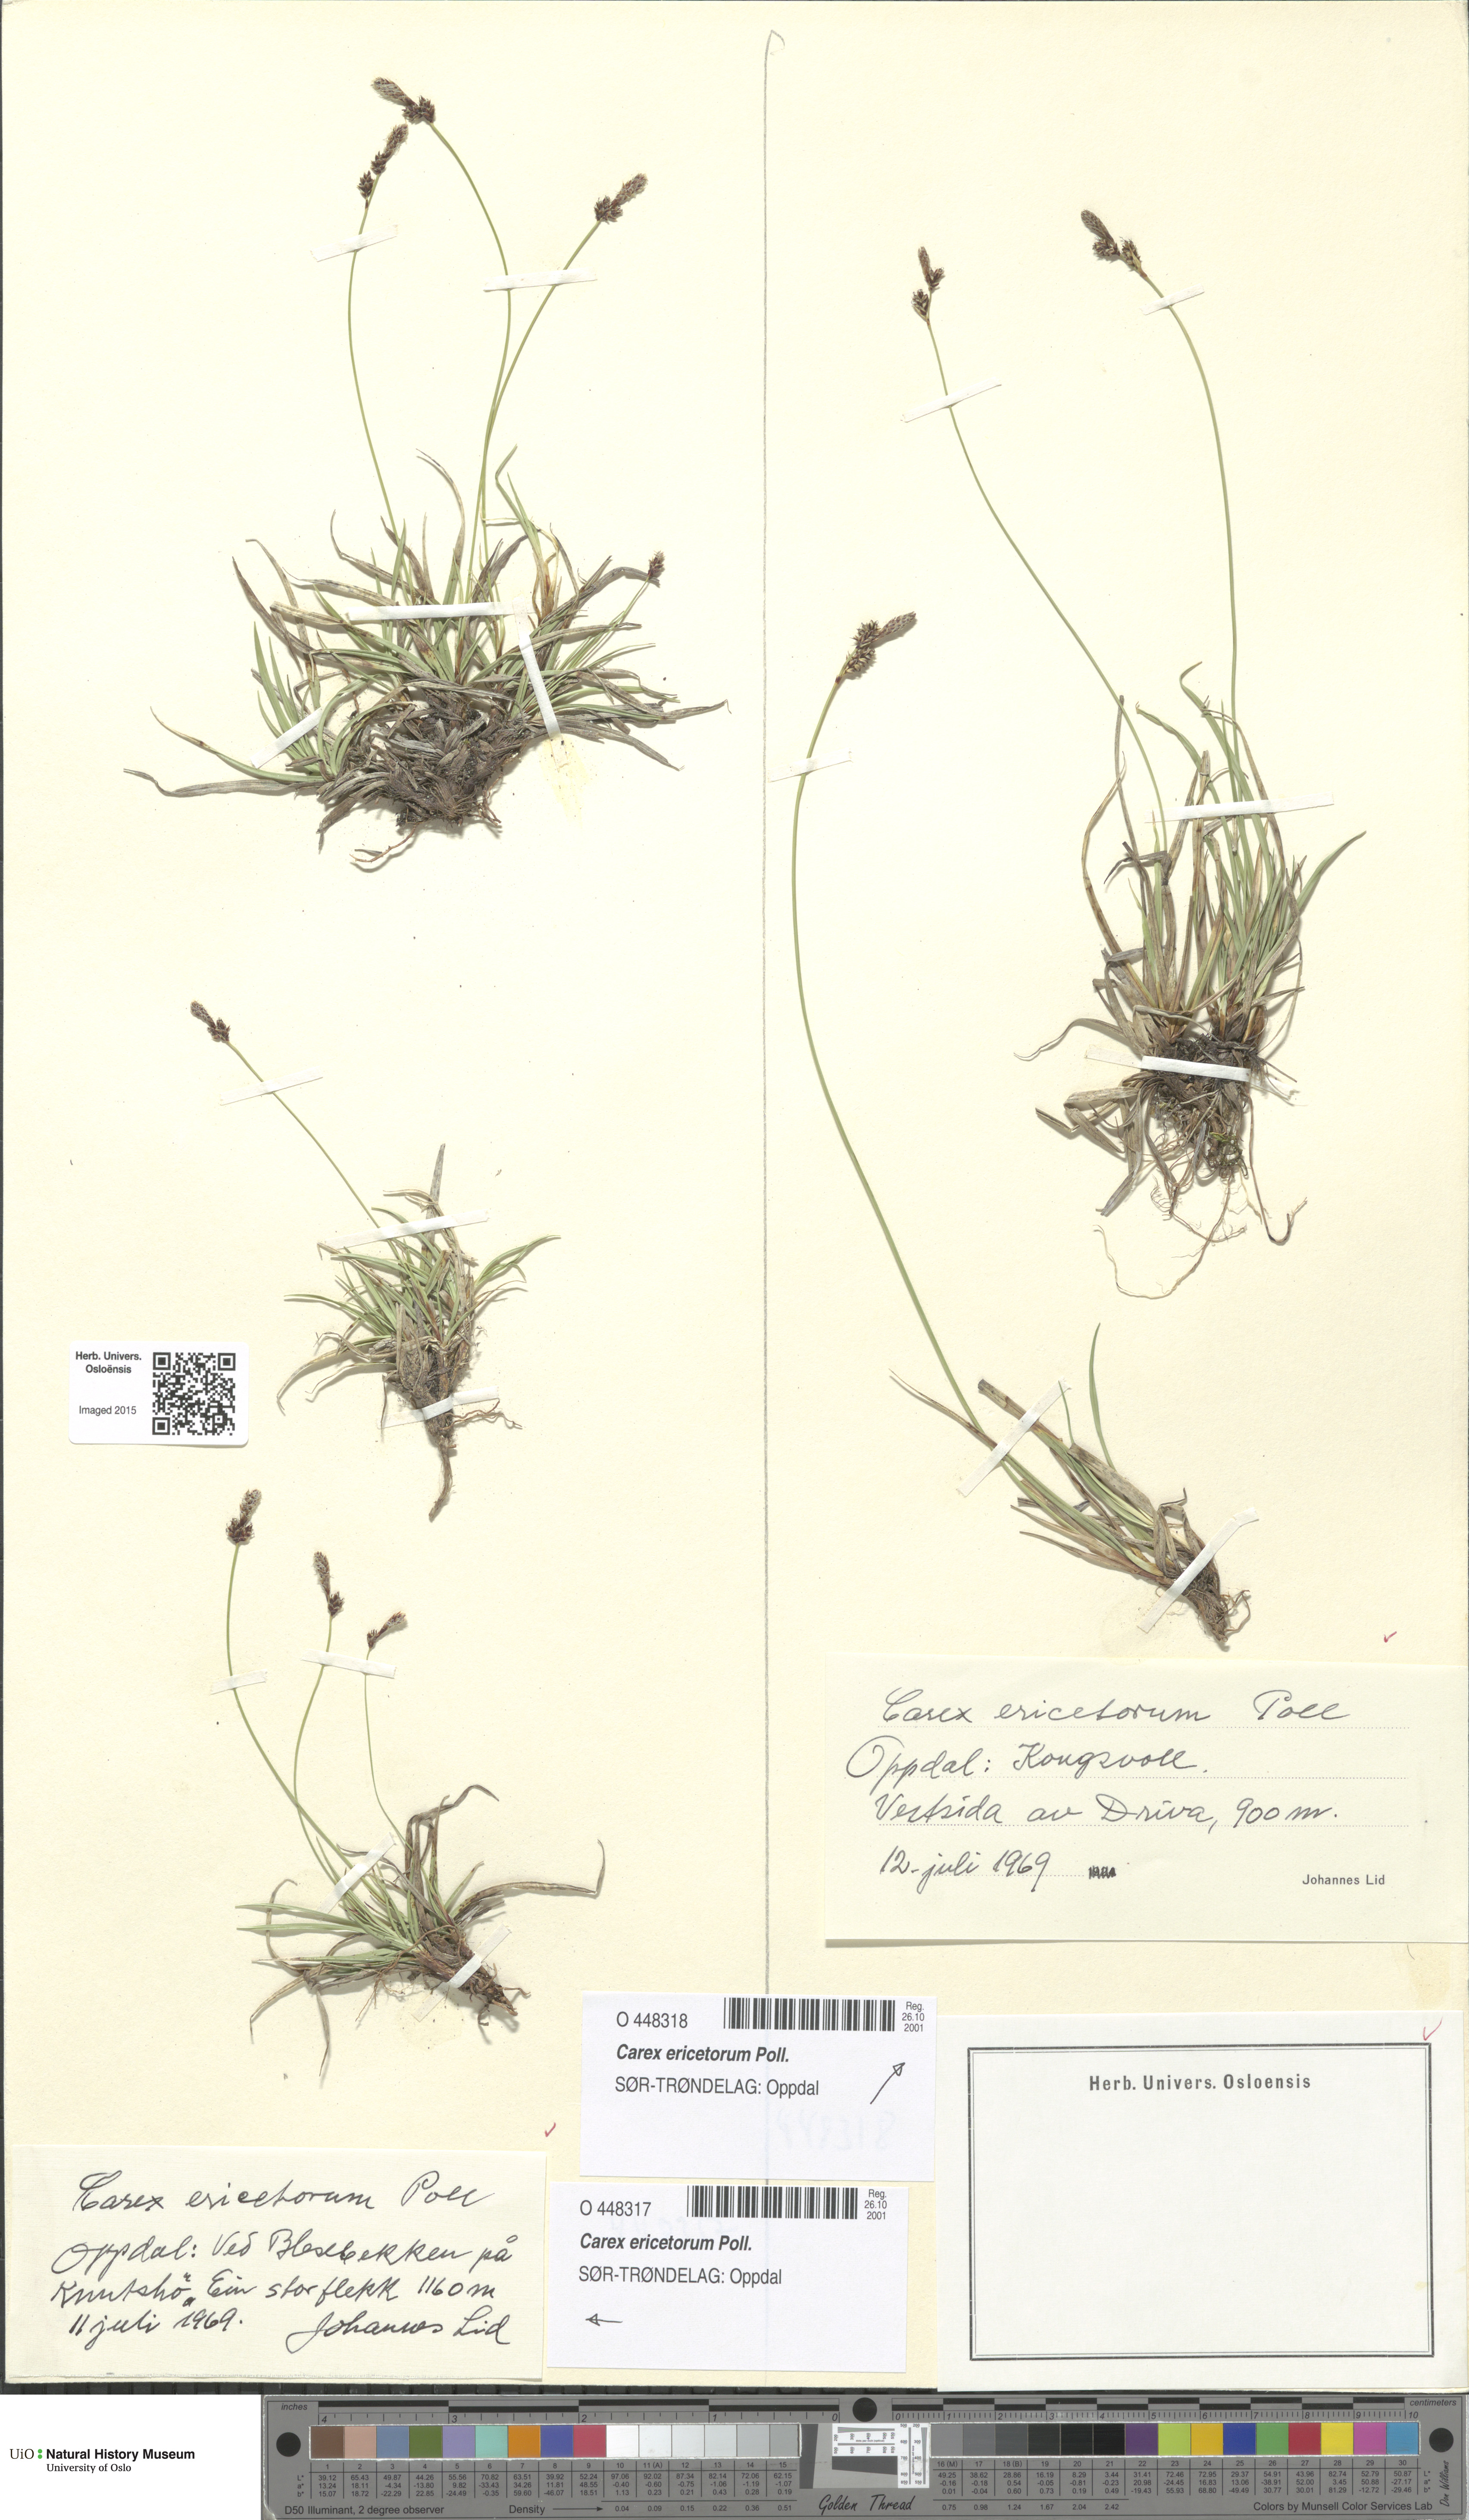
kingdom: Plantae
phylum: Tracheophyta
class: Liliopsida
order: Poales
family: Cyperaceae
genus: Carex
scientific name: Carex ericetorum
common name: Rare spring-sedge
